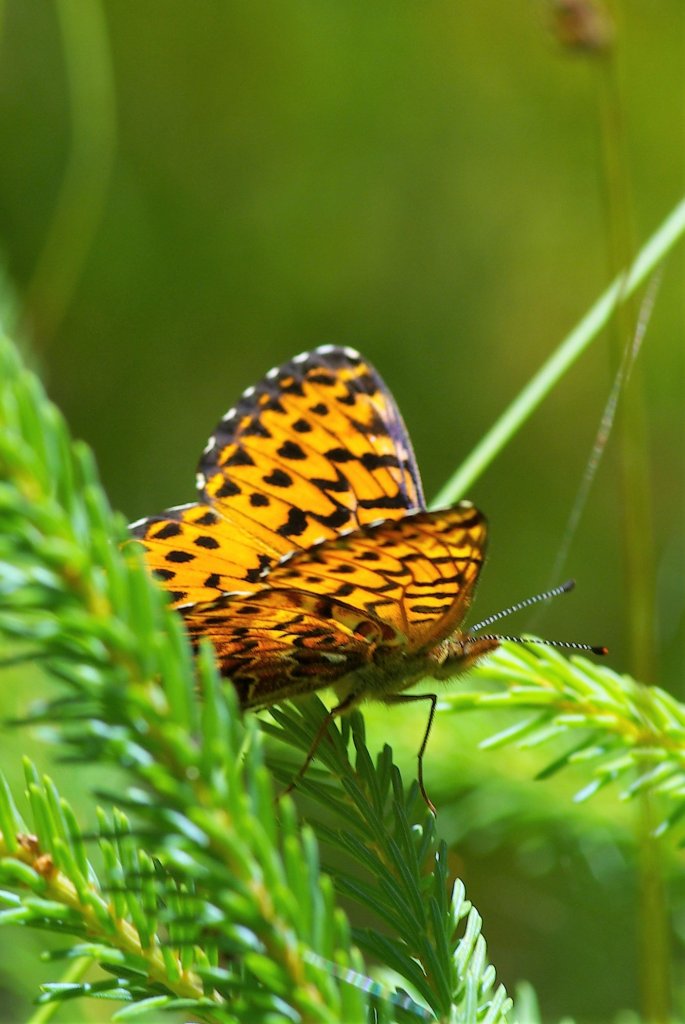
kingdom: Animalia
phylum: Arthropoda
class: Insecta
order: Lepidoptera
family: Nymphalidae
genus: Boloria
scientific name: Boloria chariclea
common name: Arctic Fritillary
